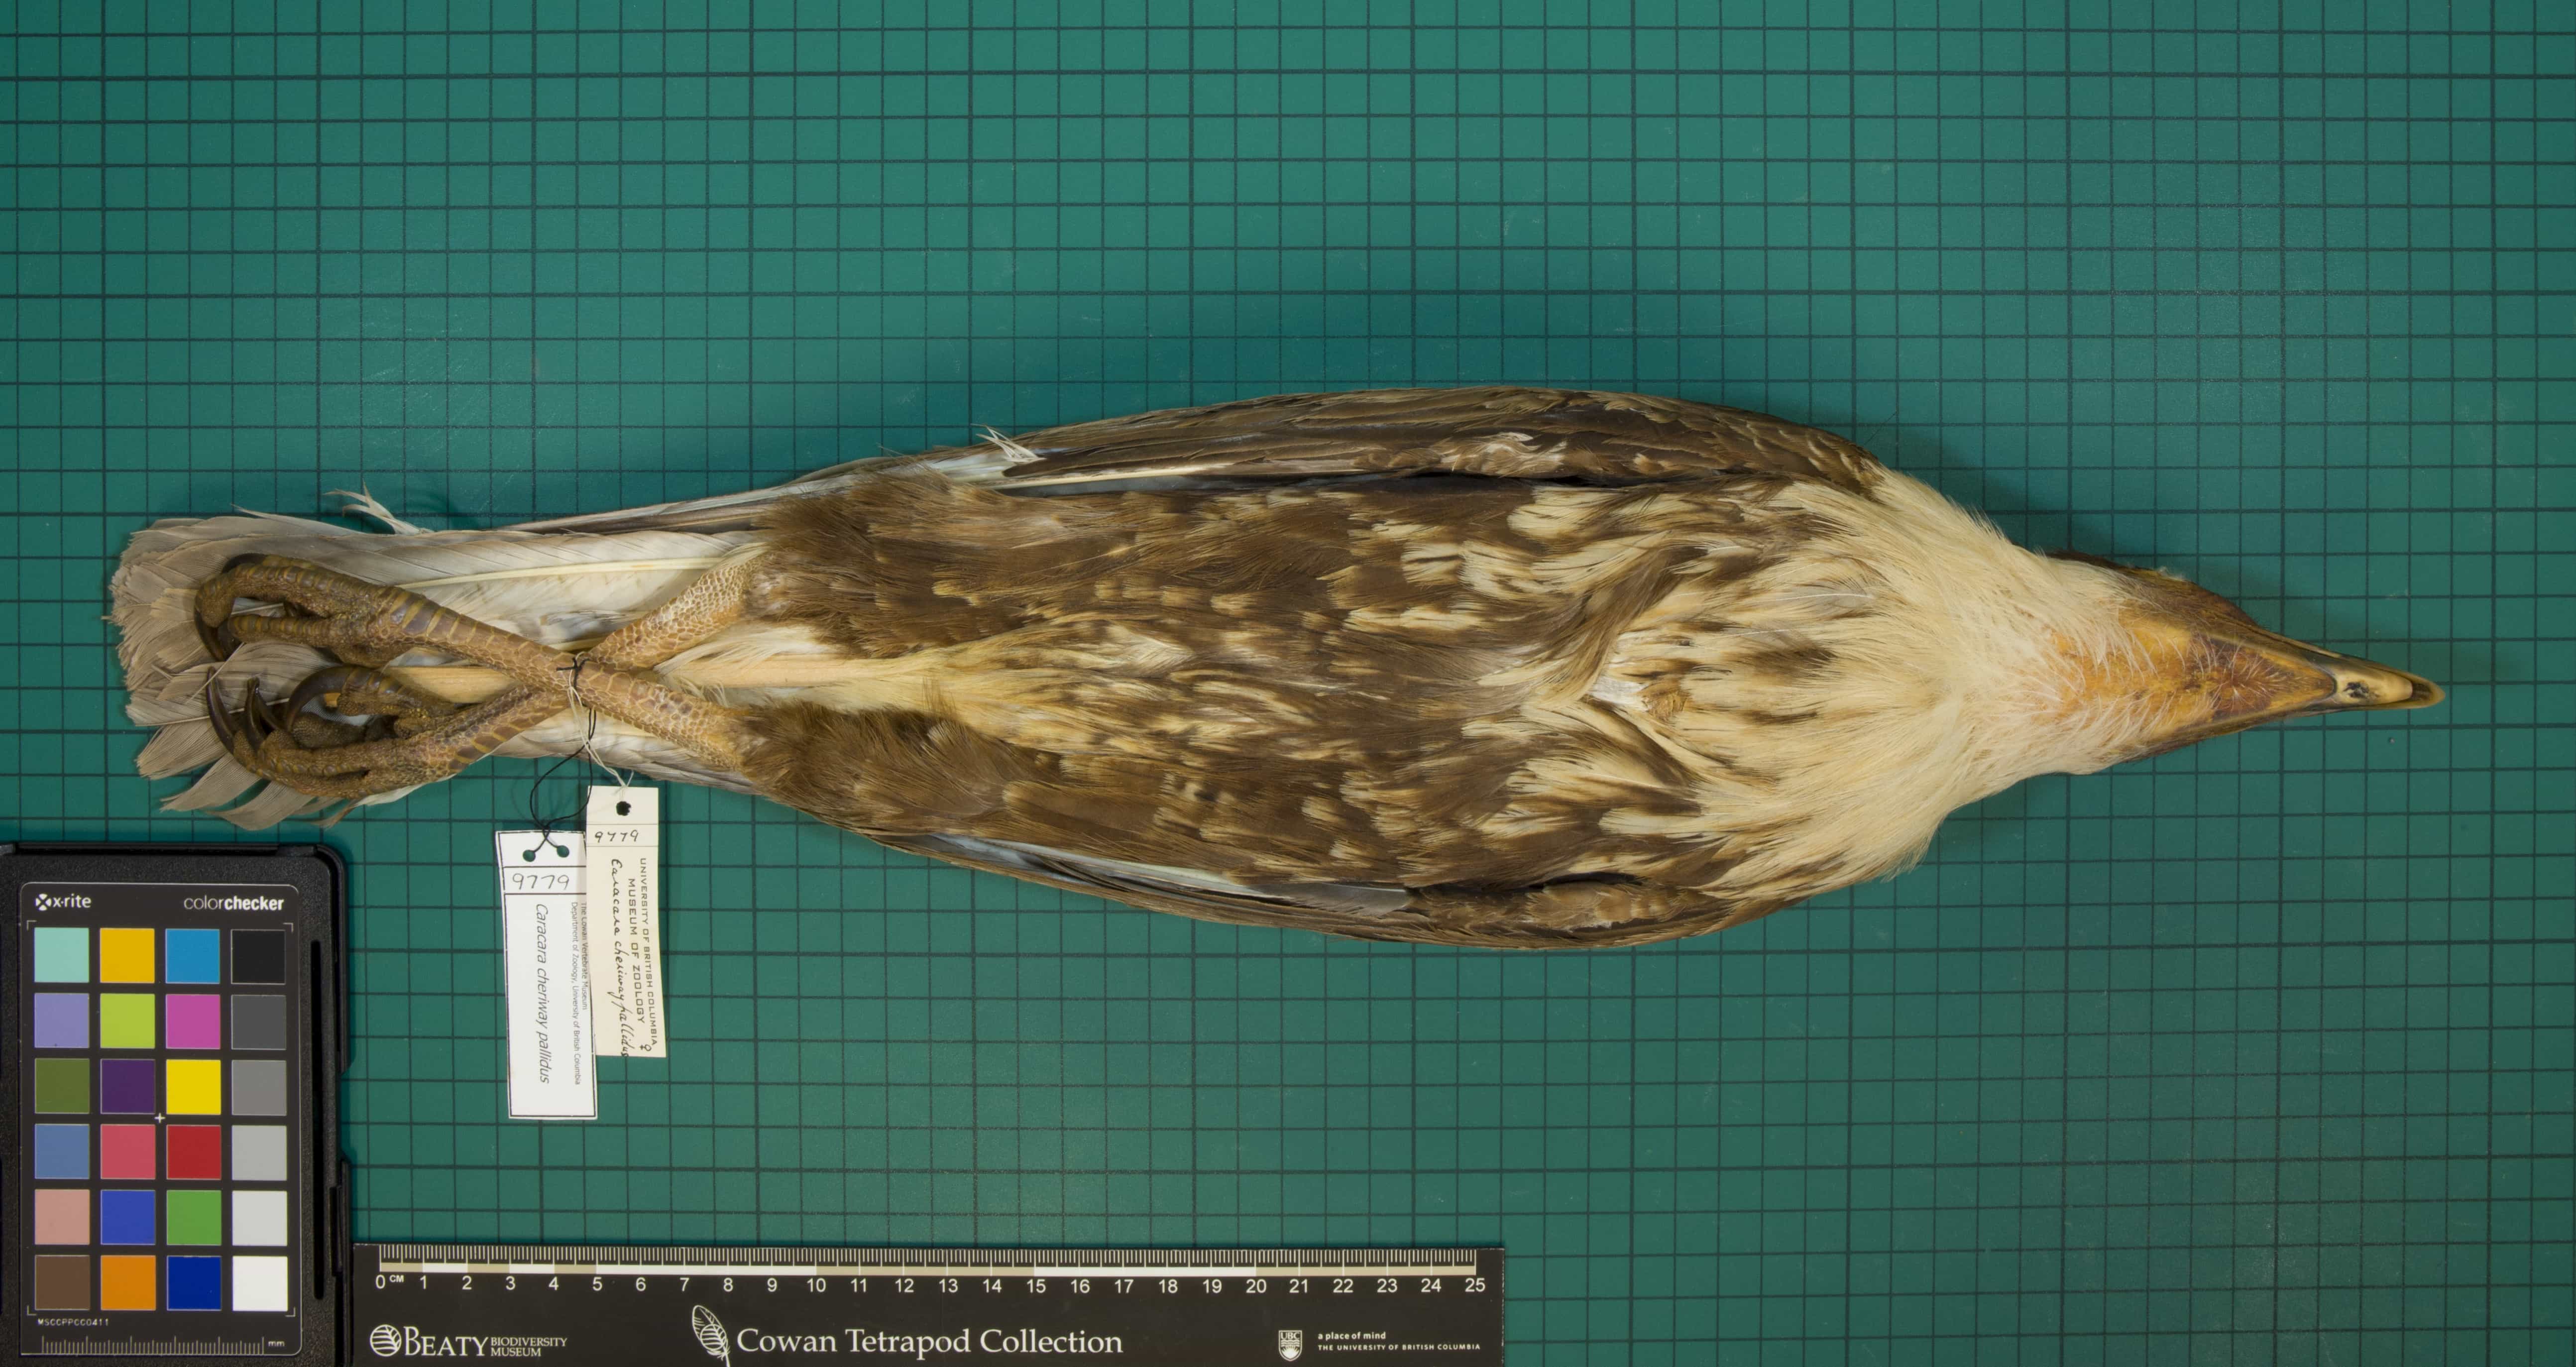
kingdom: Animalia
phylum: Chordata
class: Aves
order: Falconiformes
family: Falconidae
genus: Caracara
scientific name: Caracara plancus
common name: Crested Caracara
